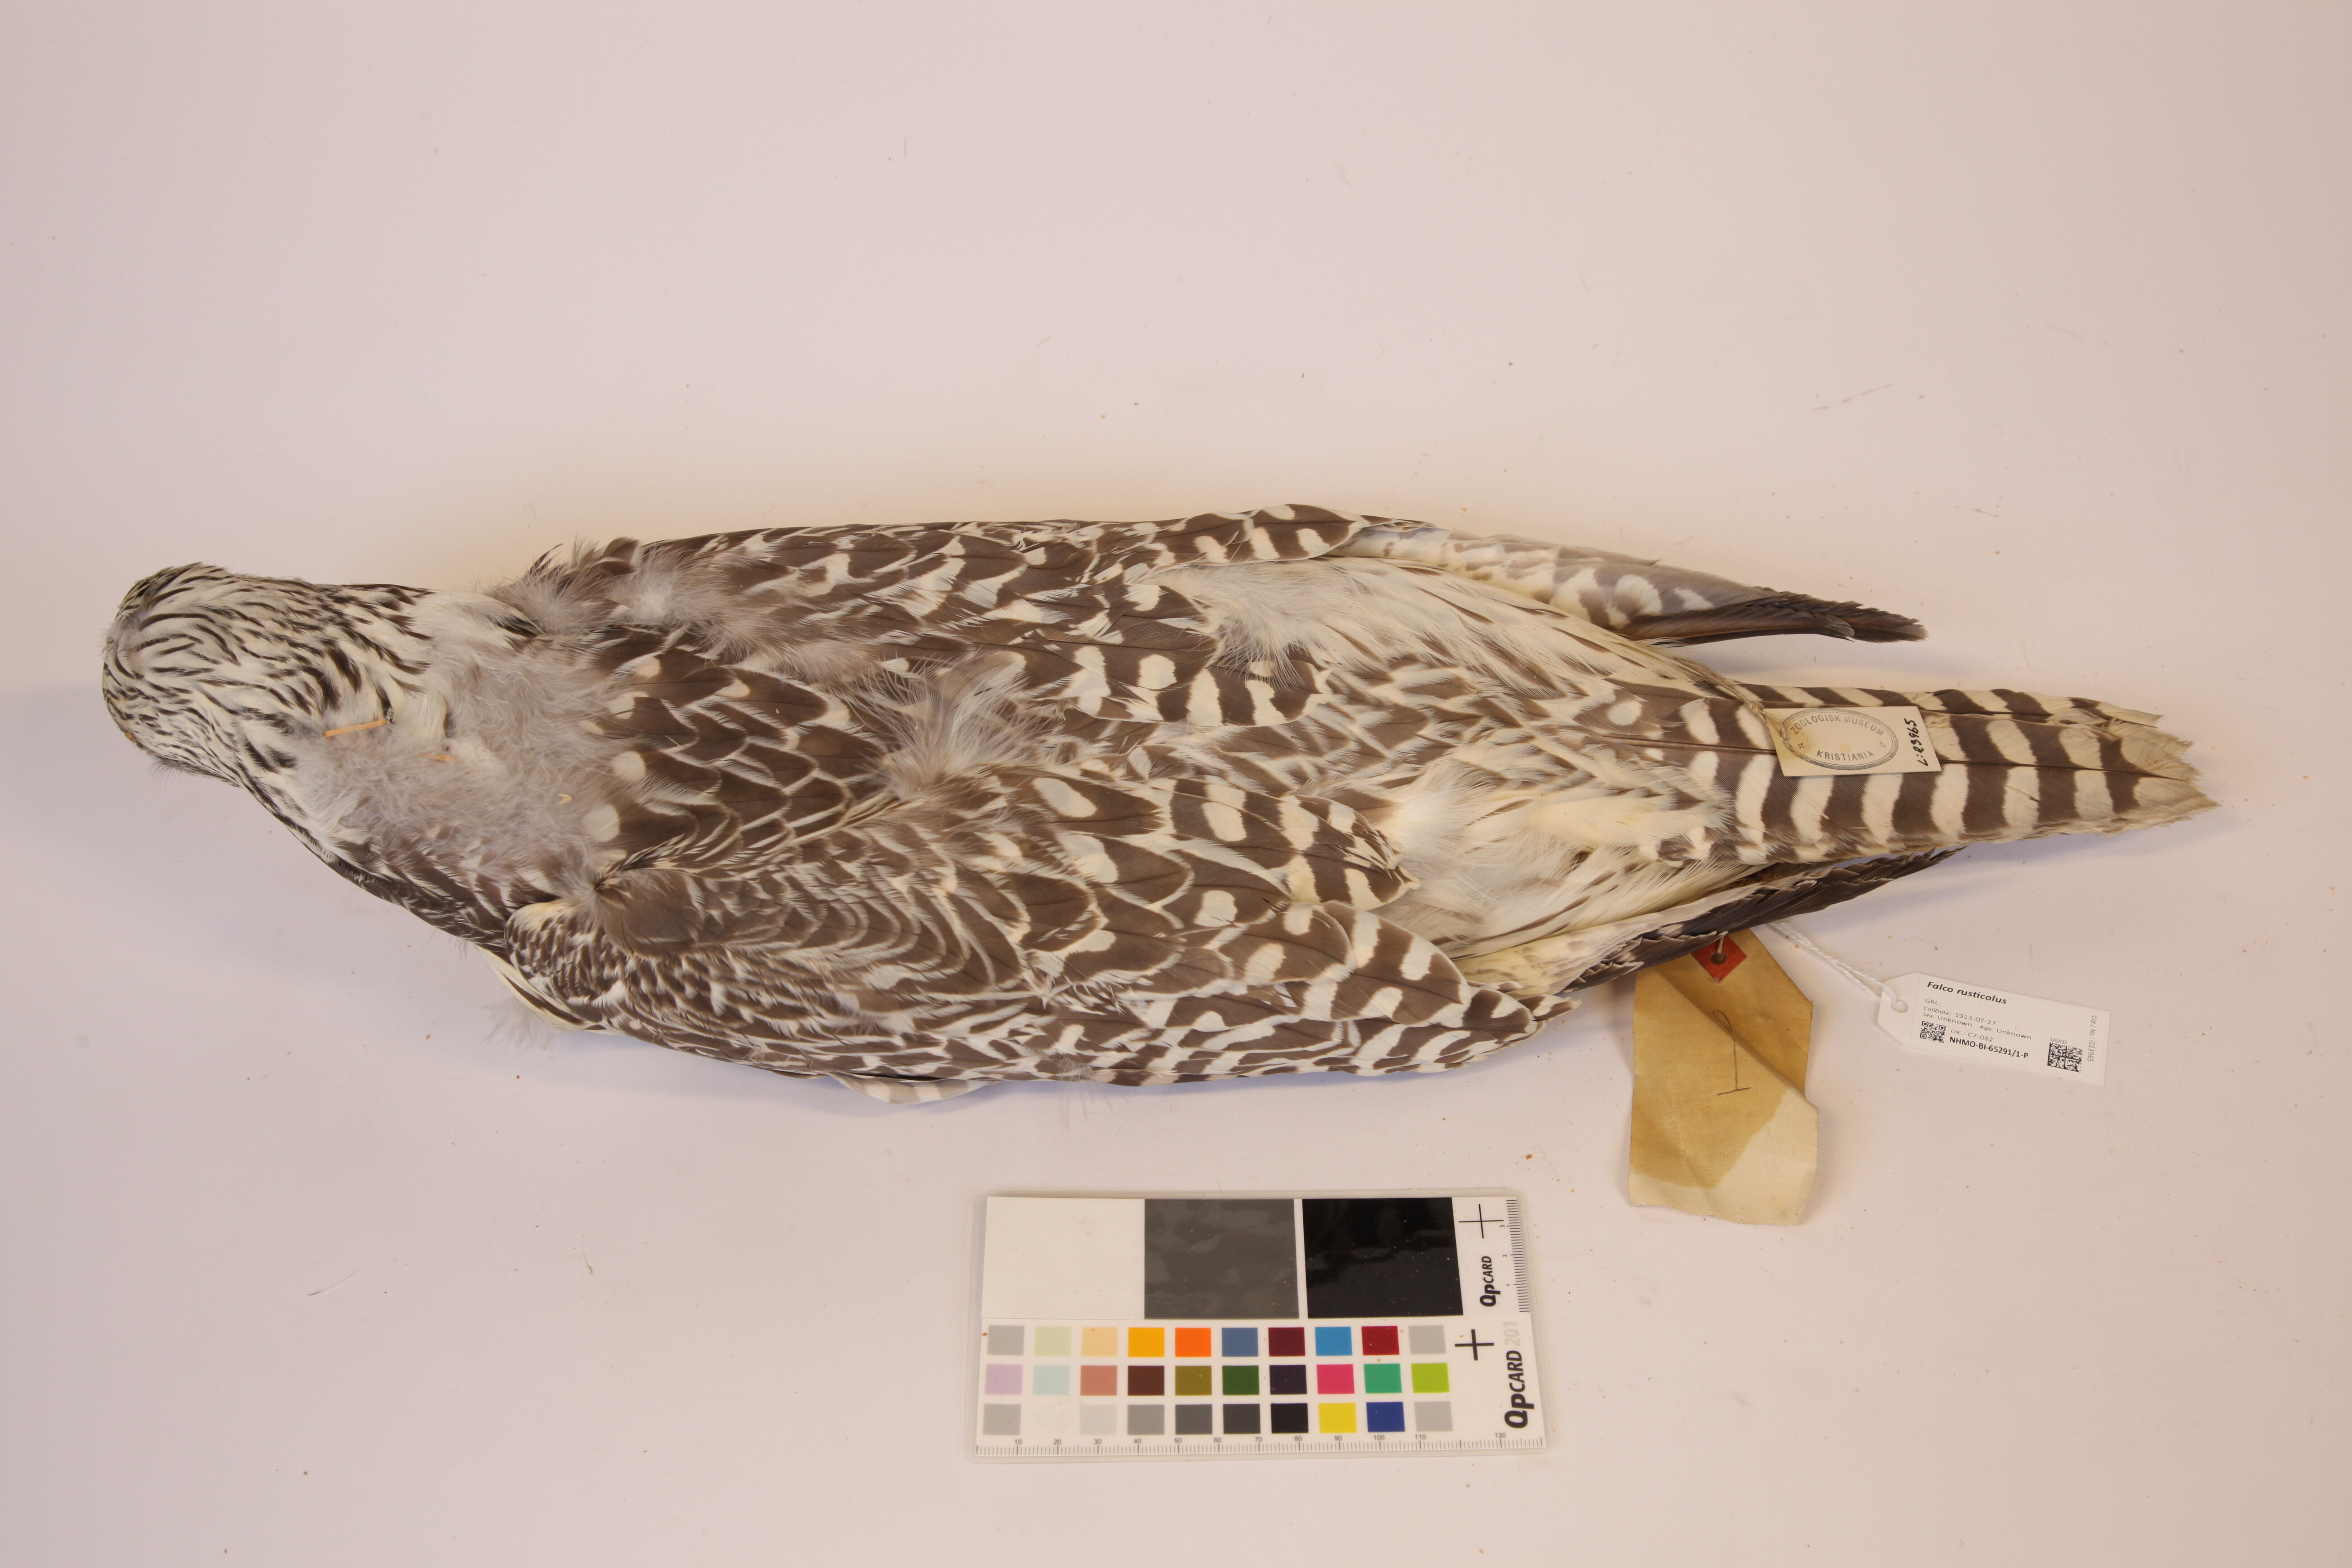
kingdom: Animalia
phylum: Chordata
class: Aves
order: Falconiformes
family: Falconidae
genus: Falco
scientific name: Falco rusticolus
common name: Gyrfalcon
